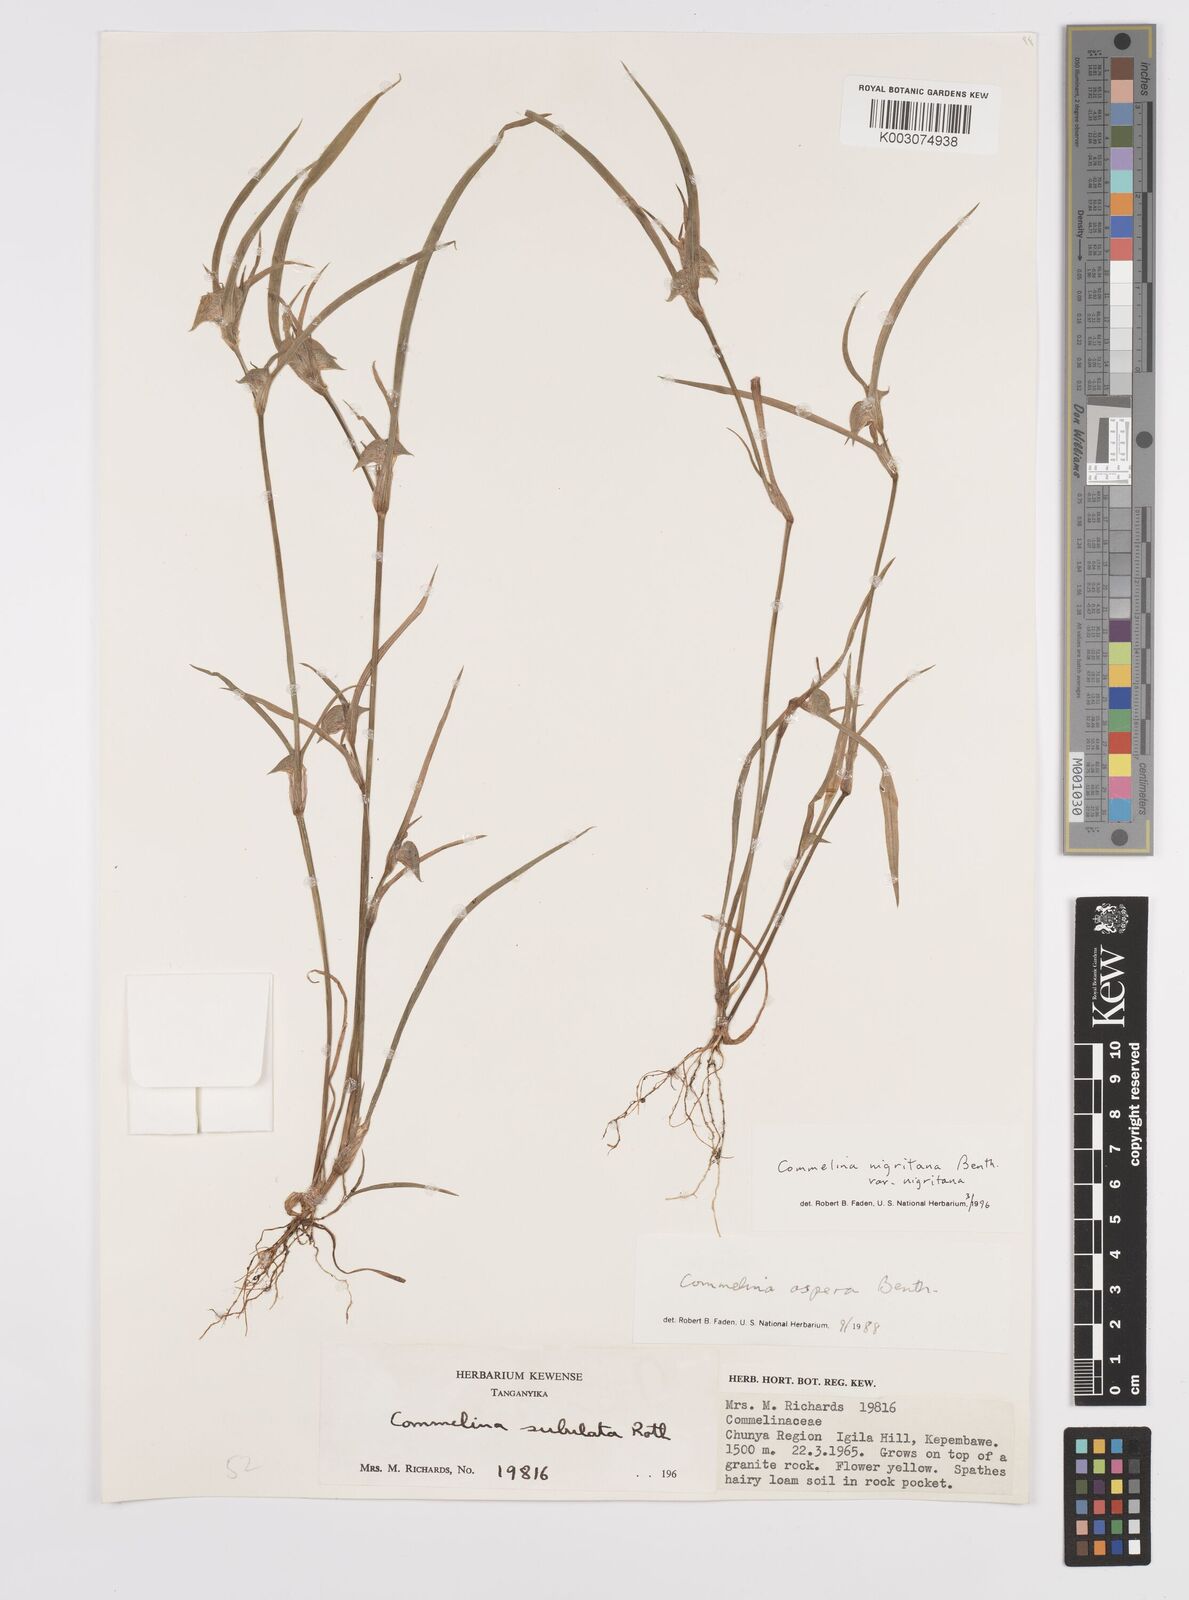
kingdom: Plantae
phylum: Tracheophyta
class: Liliopsida
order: Commelinales
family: Commelinaceae
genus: Commelina
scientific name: Commelina nigritana
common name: African dayflower
